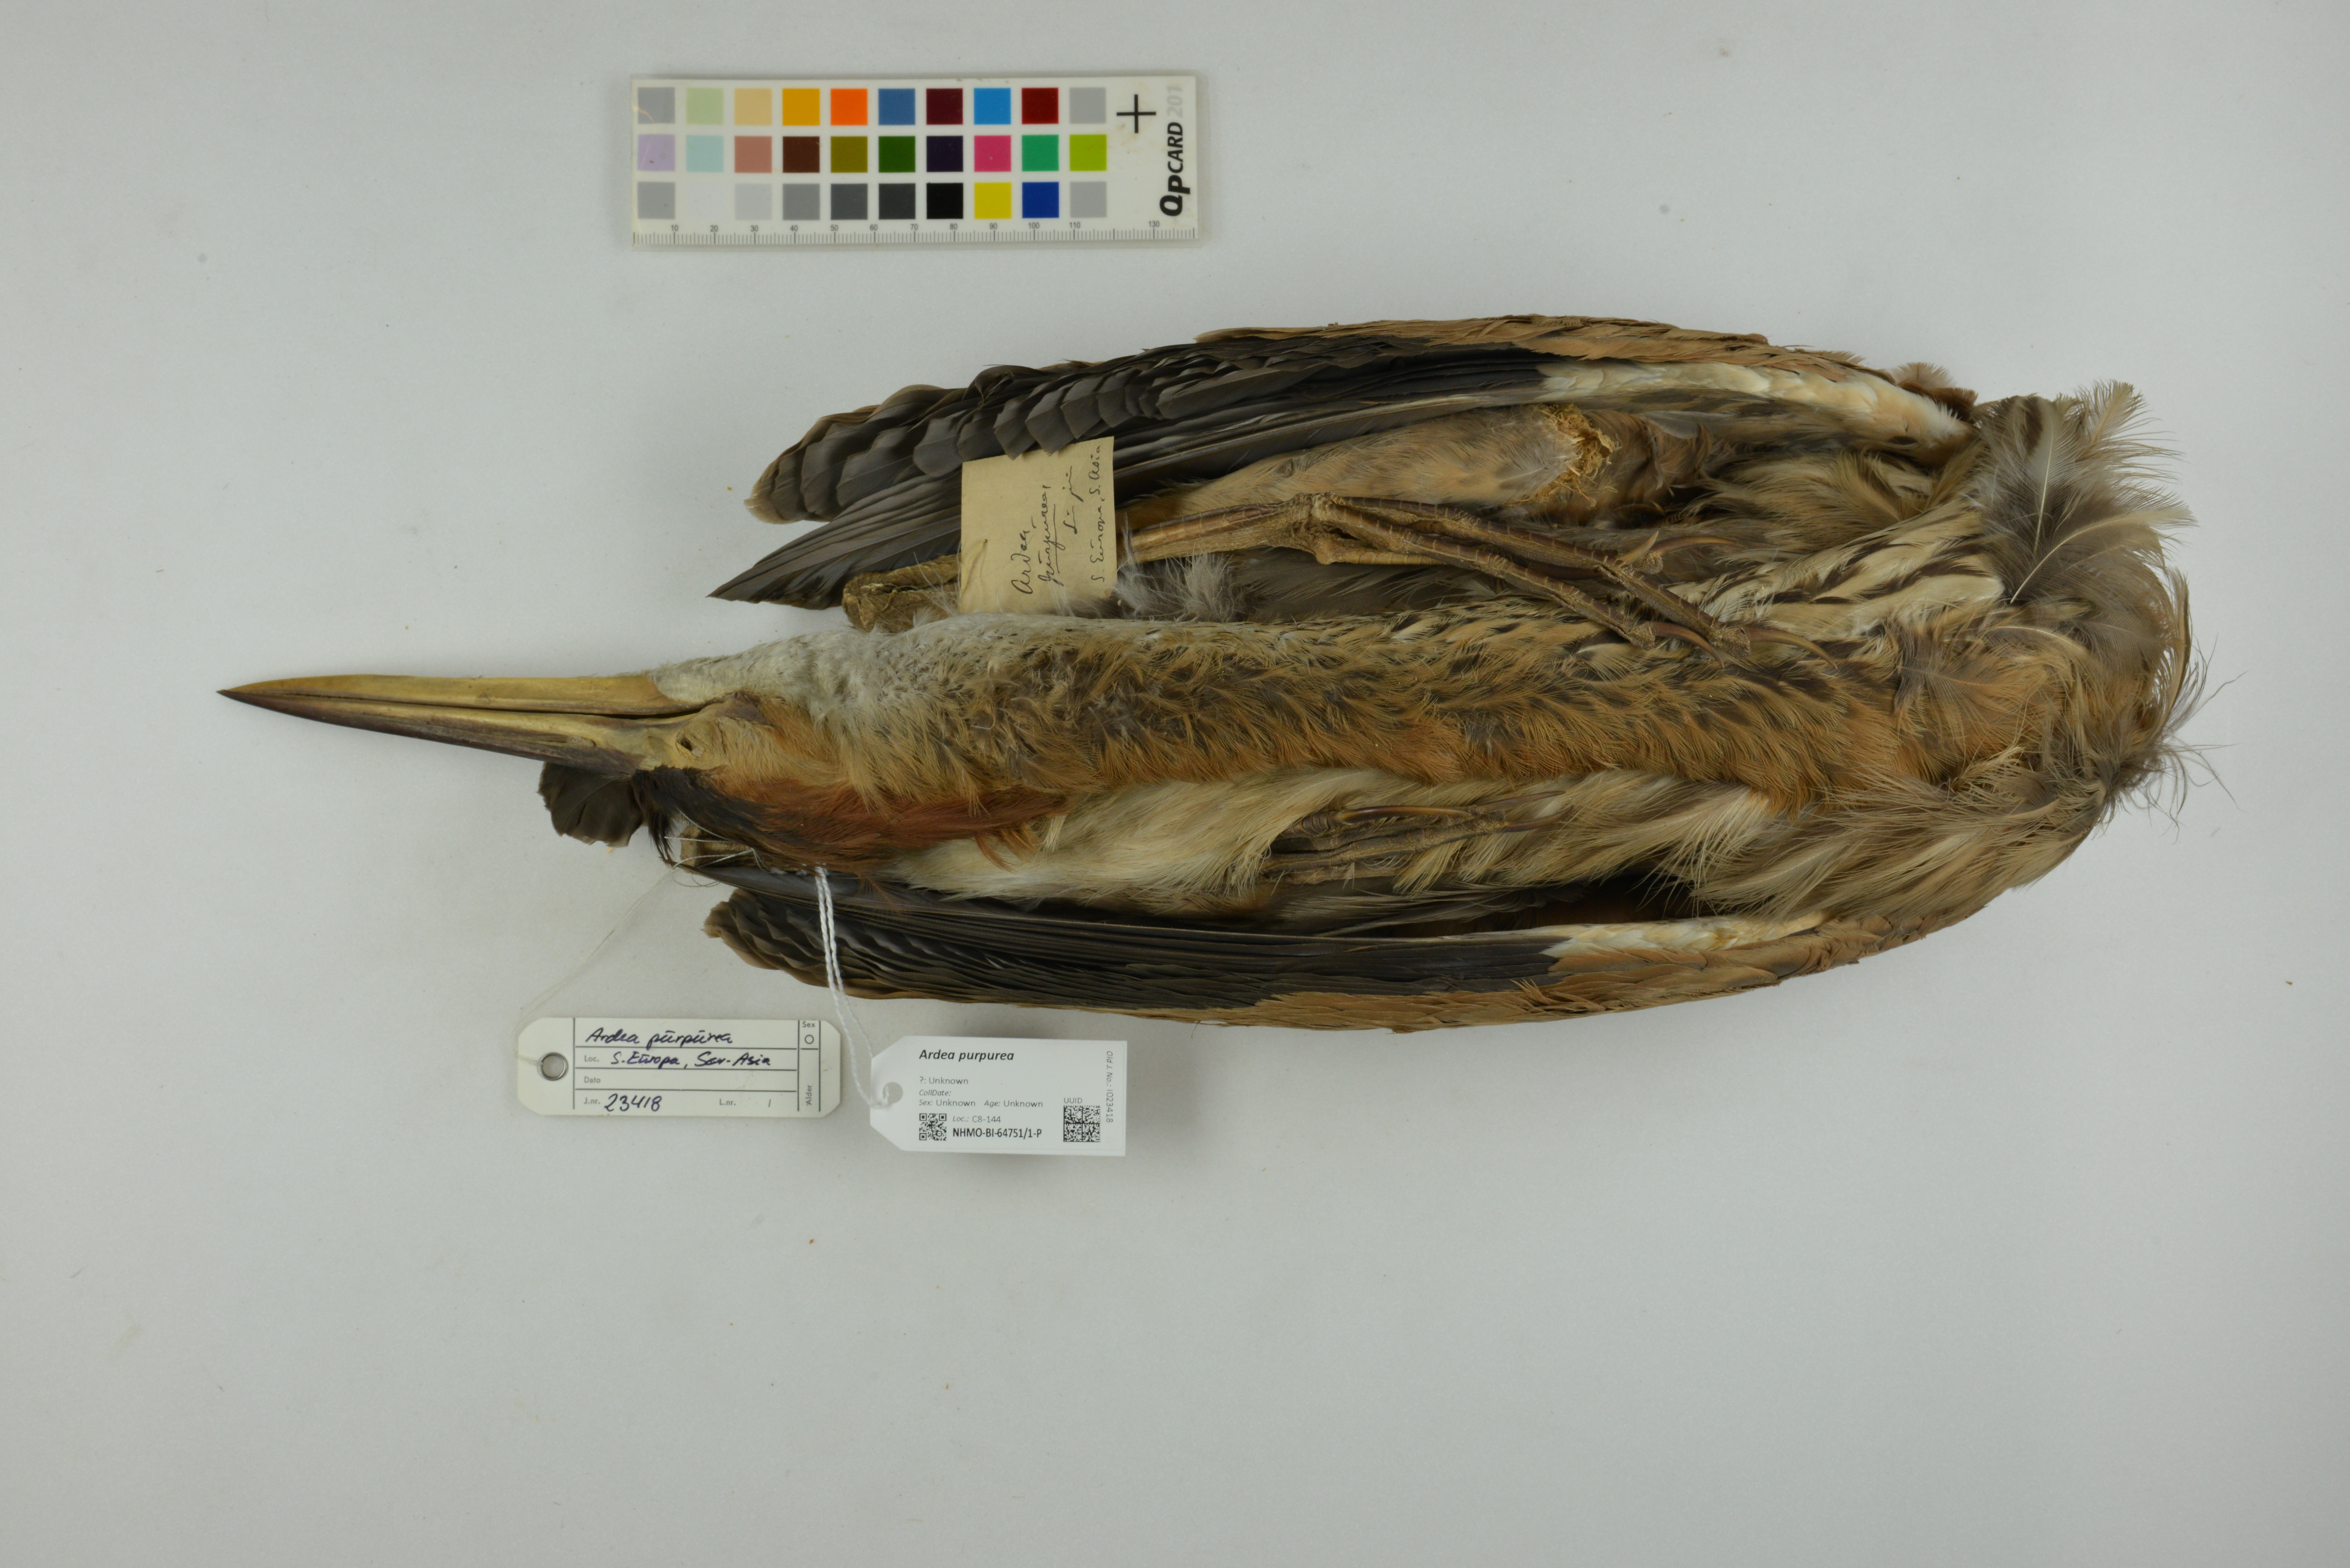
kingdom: Animalia
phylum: Chordata
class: Aves
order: Pelecaniformes
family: Ardeidae
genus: Ardea
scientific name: Ardea purpurea
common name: Purple heron
